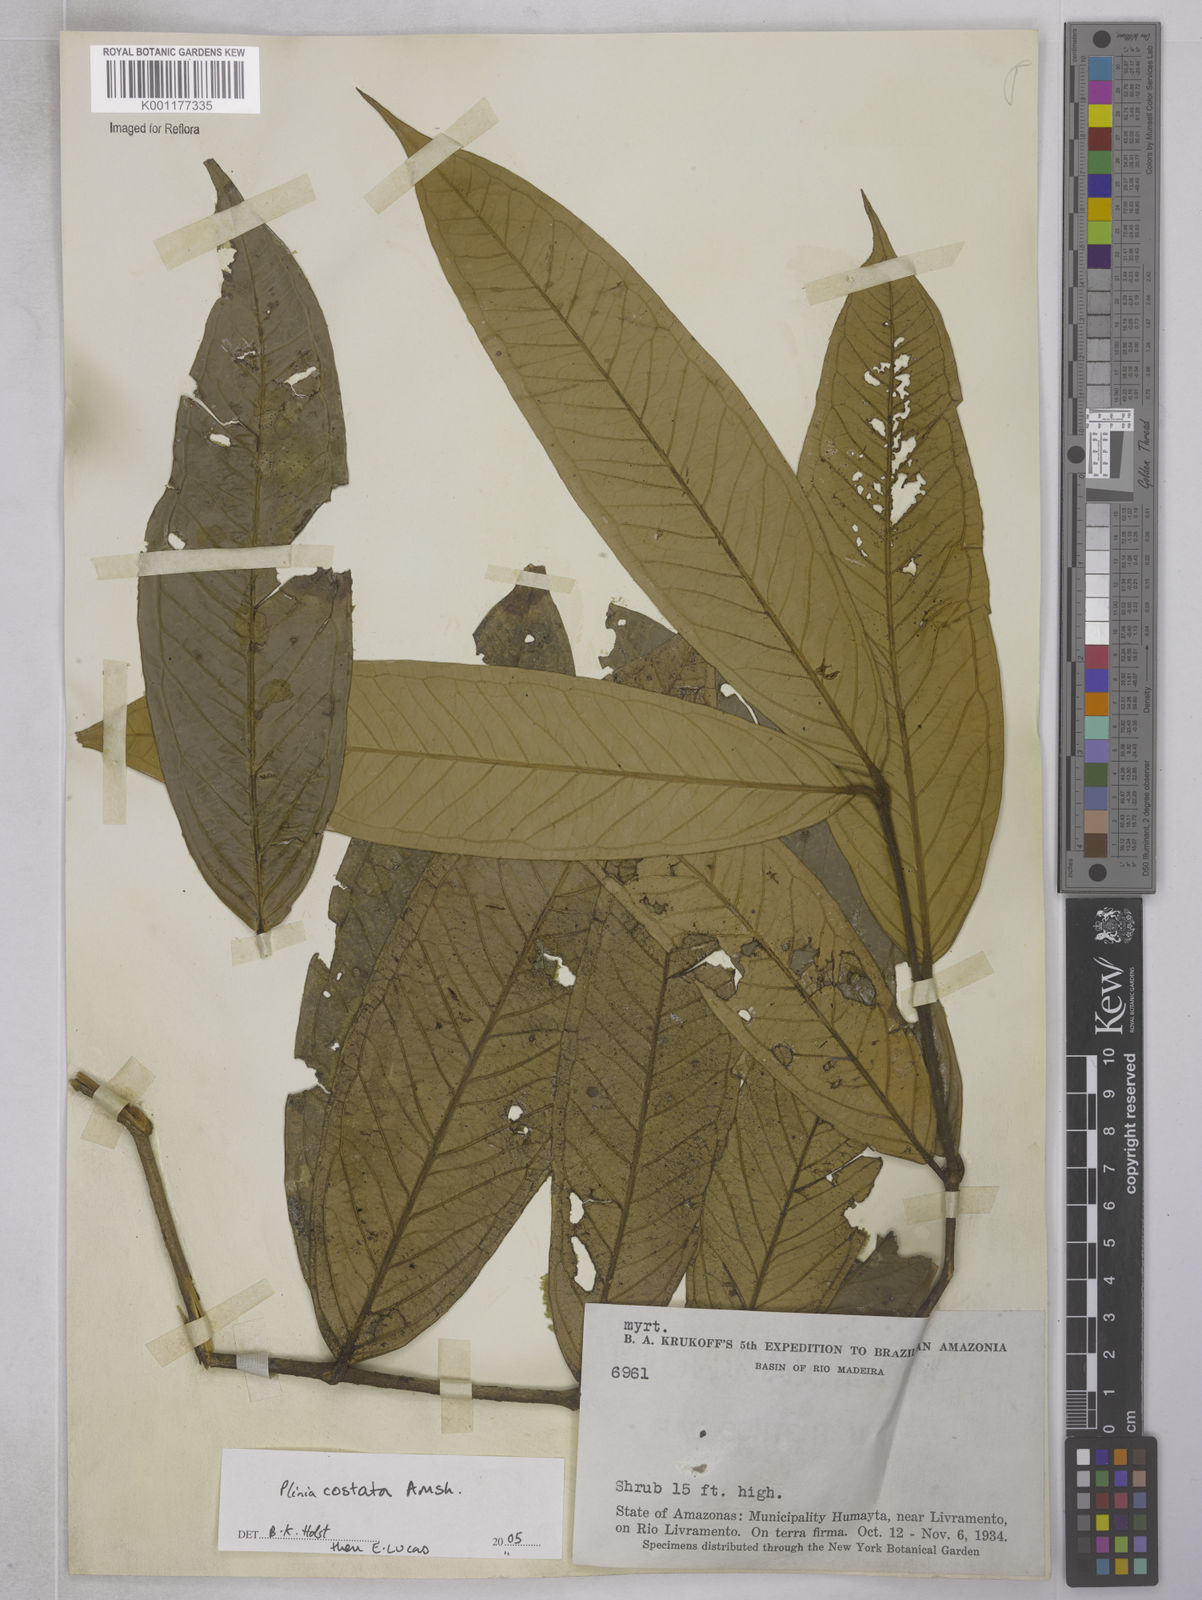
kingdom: Plantae
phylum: Tracheophyta
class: Magnoliopsida
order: Myrtales
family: Myrtaceae
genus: Plinia
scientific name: Plinia povedae
